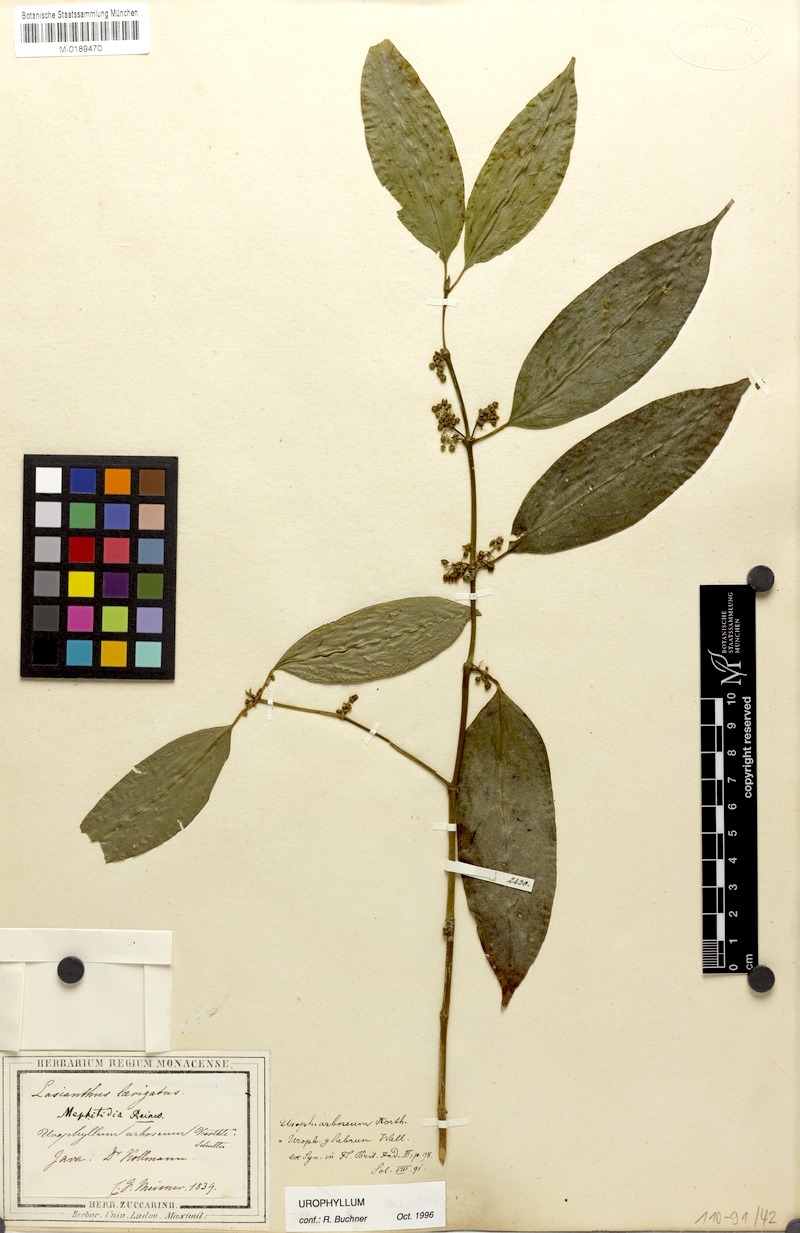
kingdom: Plantae
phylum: Tracheophyta
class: Magnoliopsida
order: Gentianales
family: Rubiaceae
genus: Urophyllum
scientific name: Urophyllum arboreum
